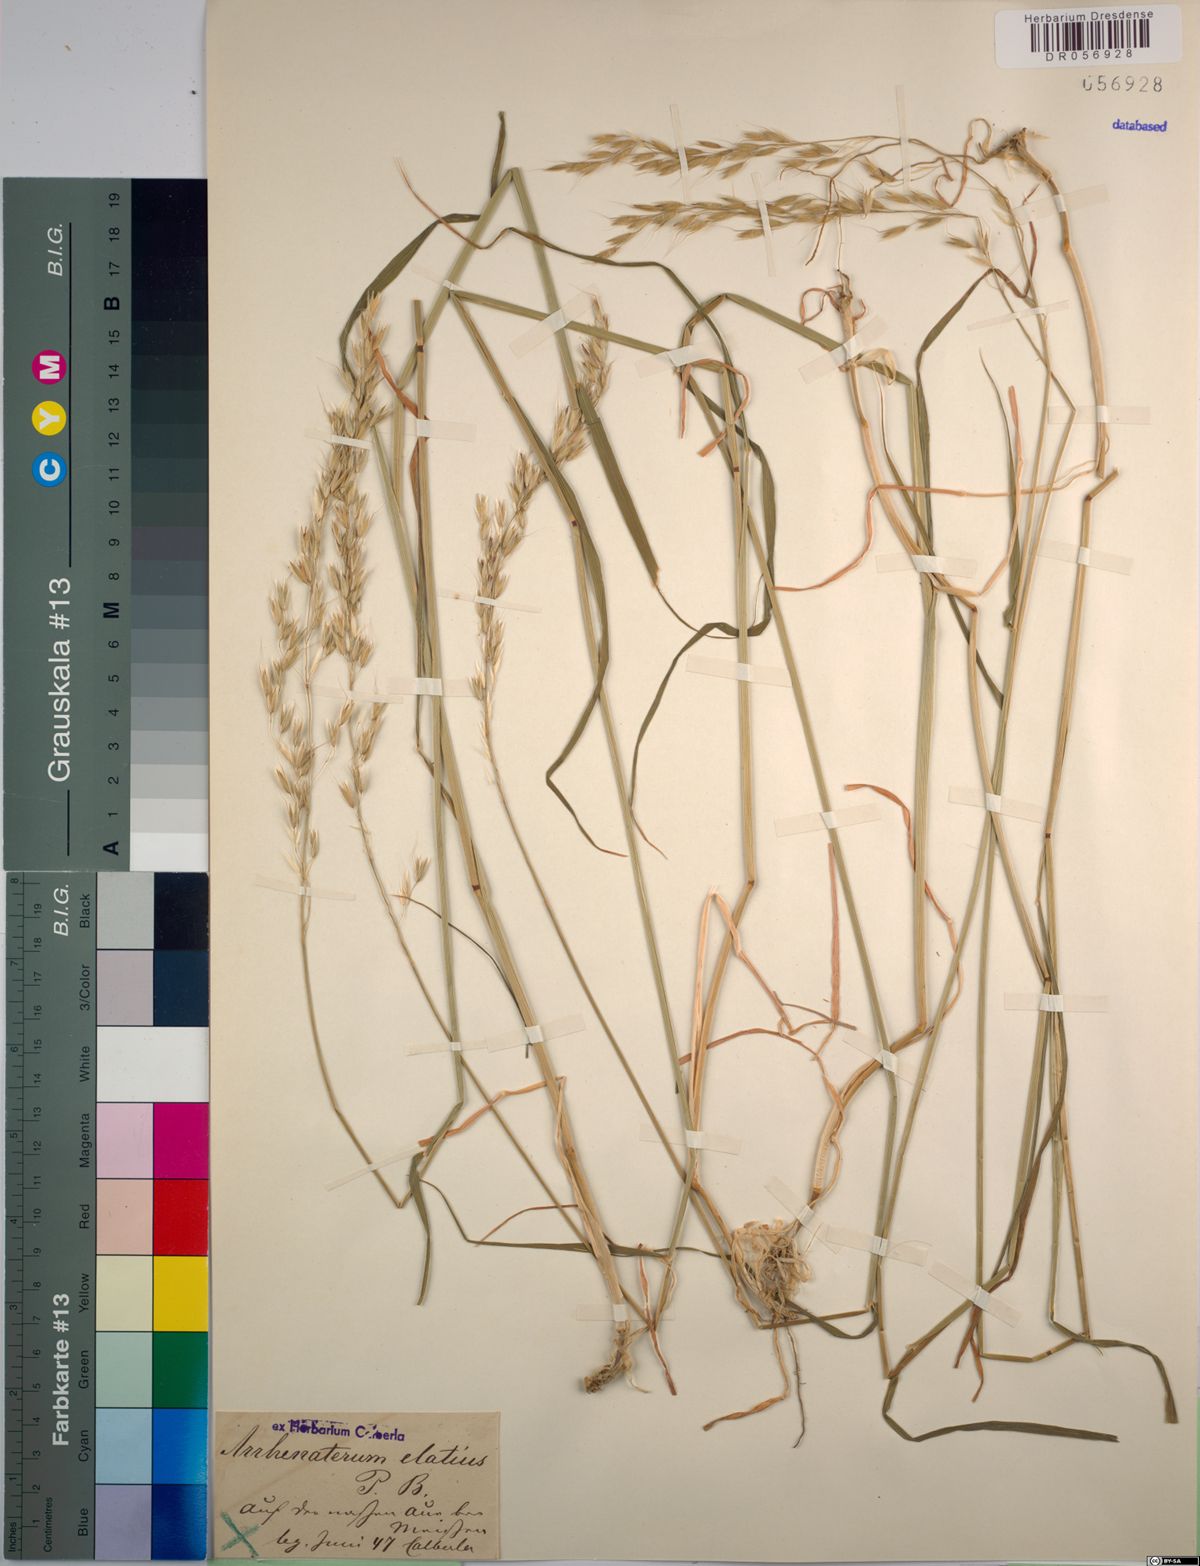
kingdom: Plantae
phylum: Tracheophyta
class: Liliopsida
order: Poales
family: Poaceae
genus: Arrhenatherum
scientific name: Arrhenatherum elatius
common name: Tall oatgrass
